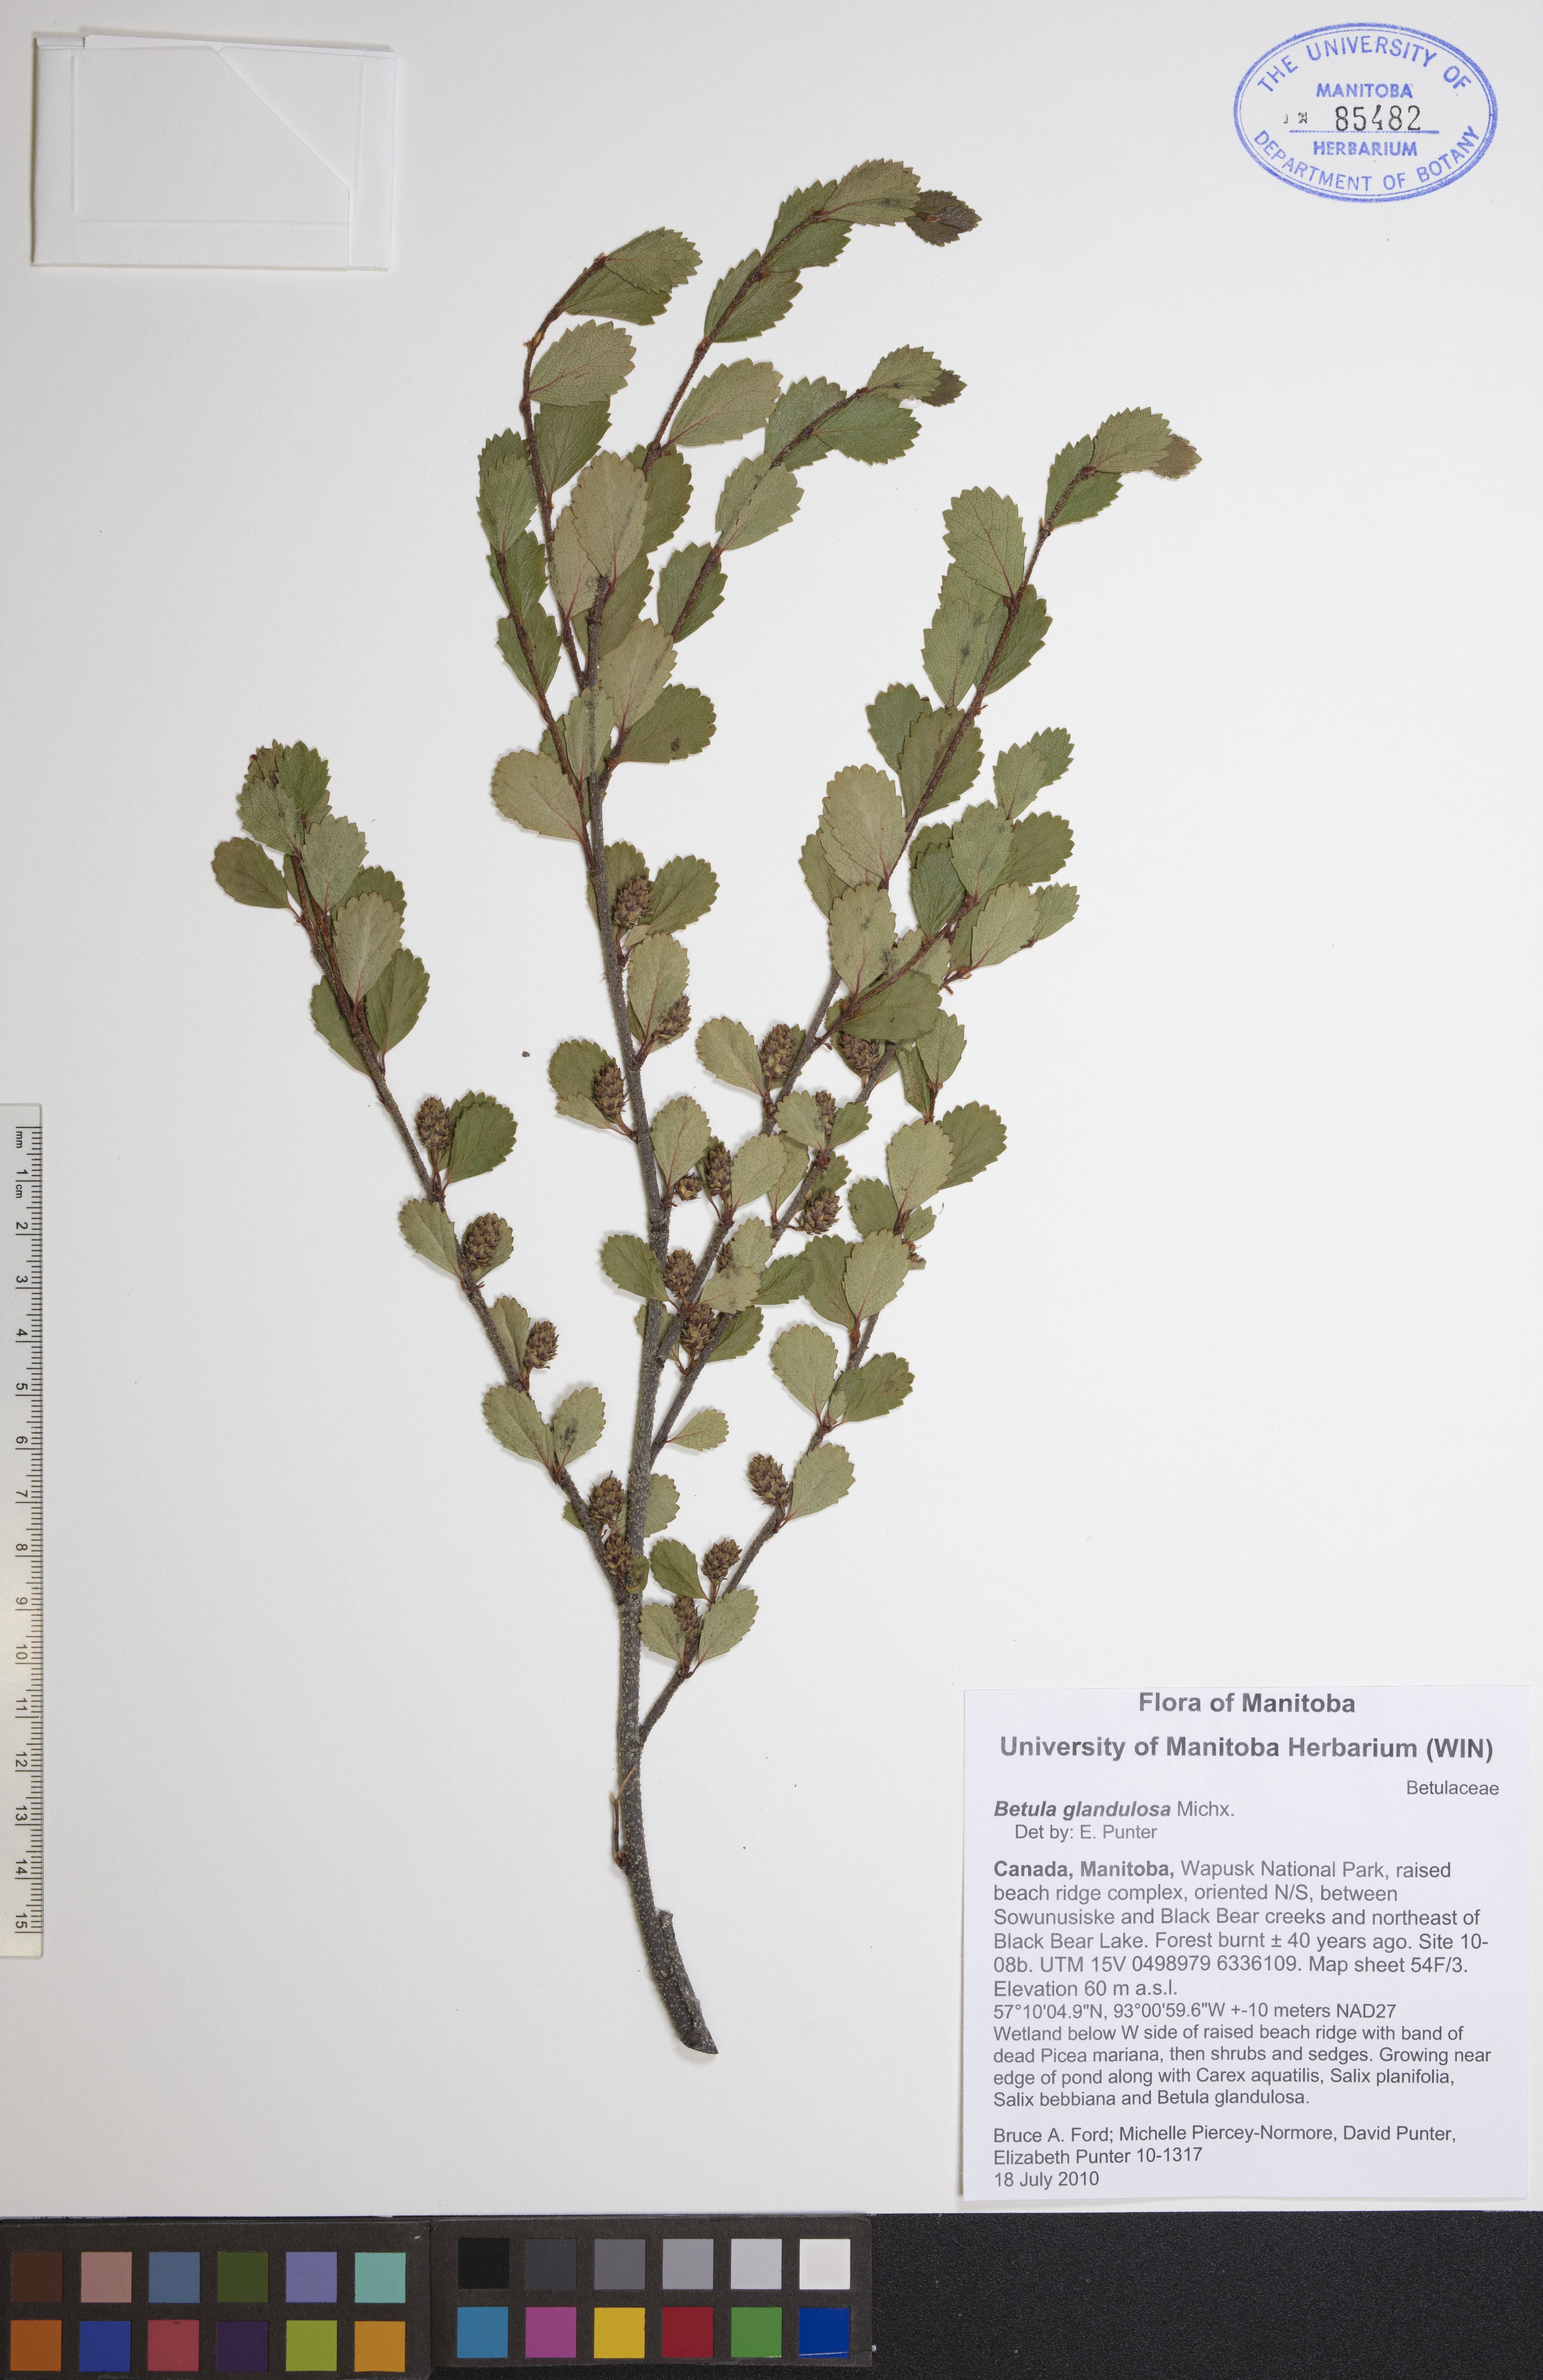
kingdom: Plantae
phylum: Tracheophyta
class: Magnoliopsida
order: Fagales
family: Betulaceae
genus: Betula
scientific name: Betula glandulosa
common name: Dwarf birch
